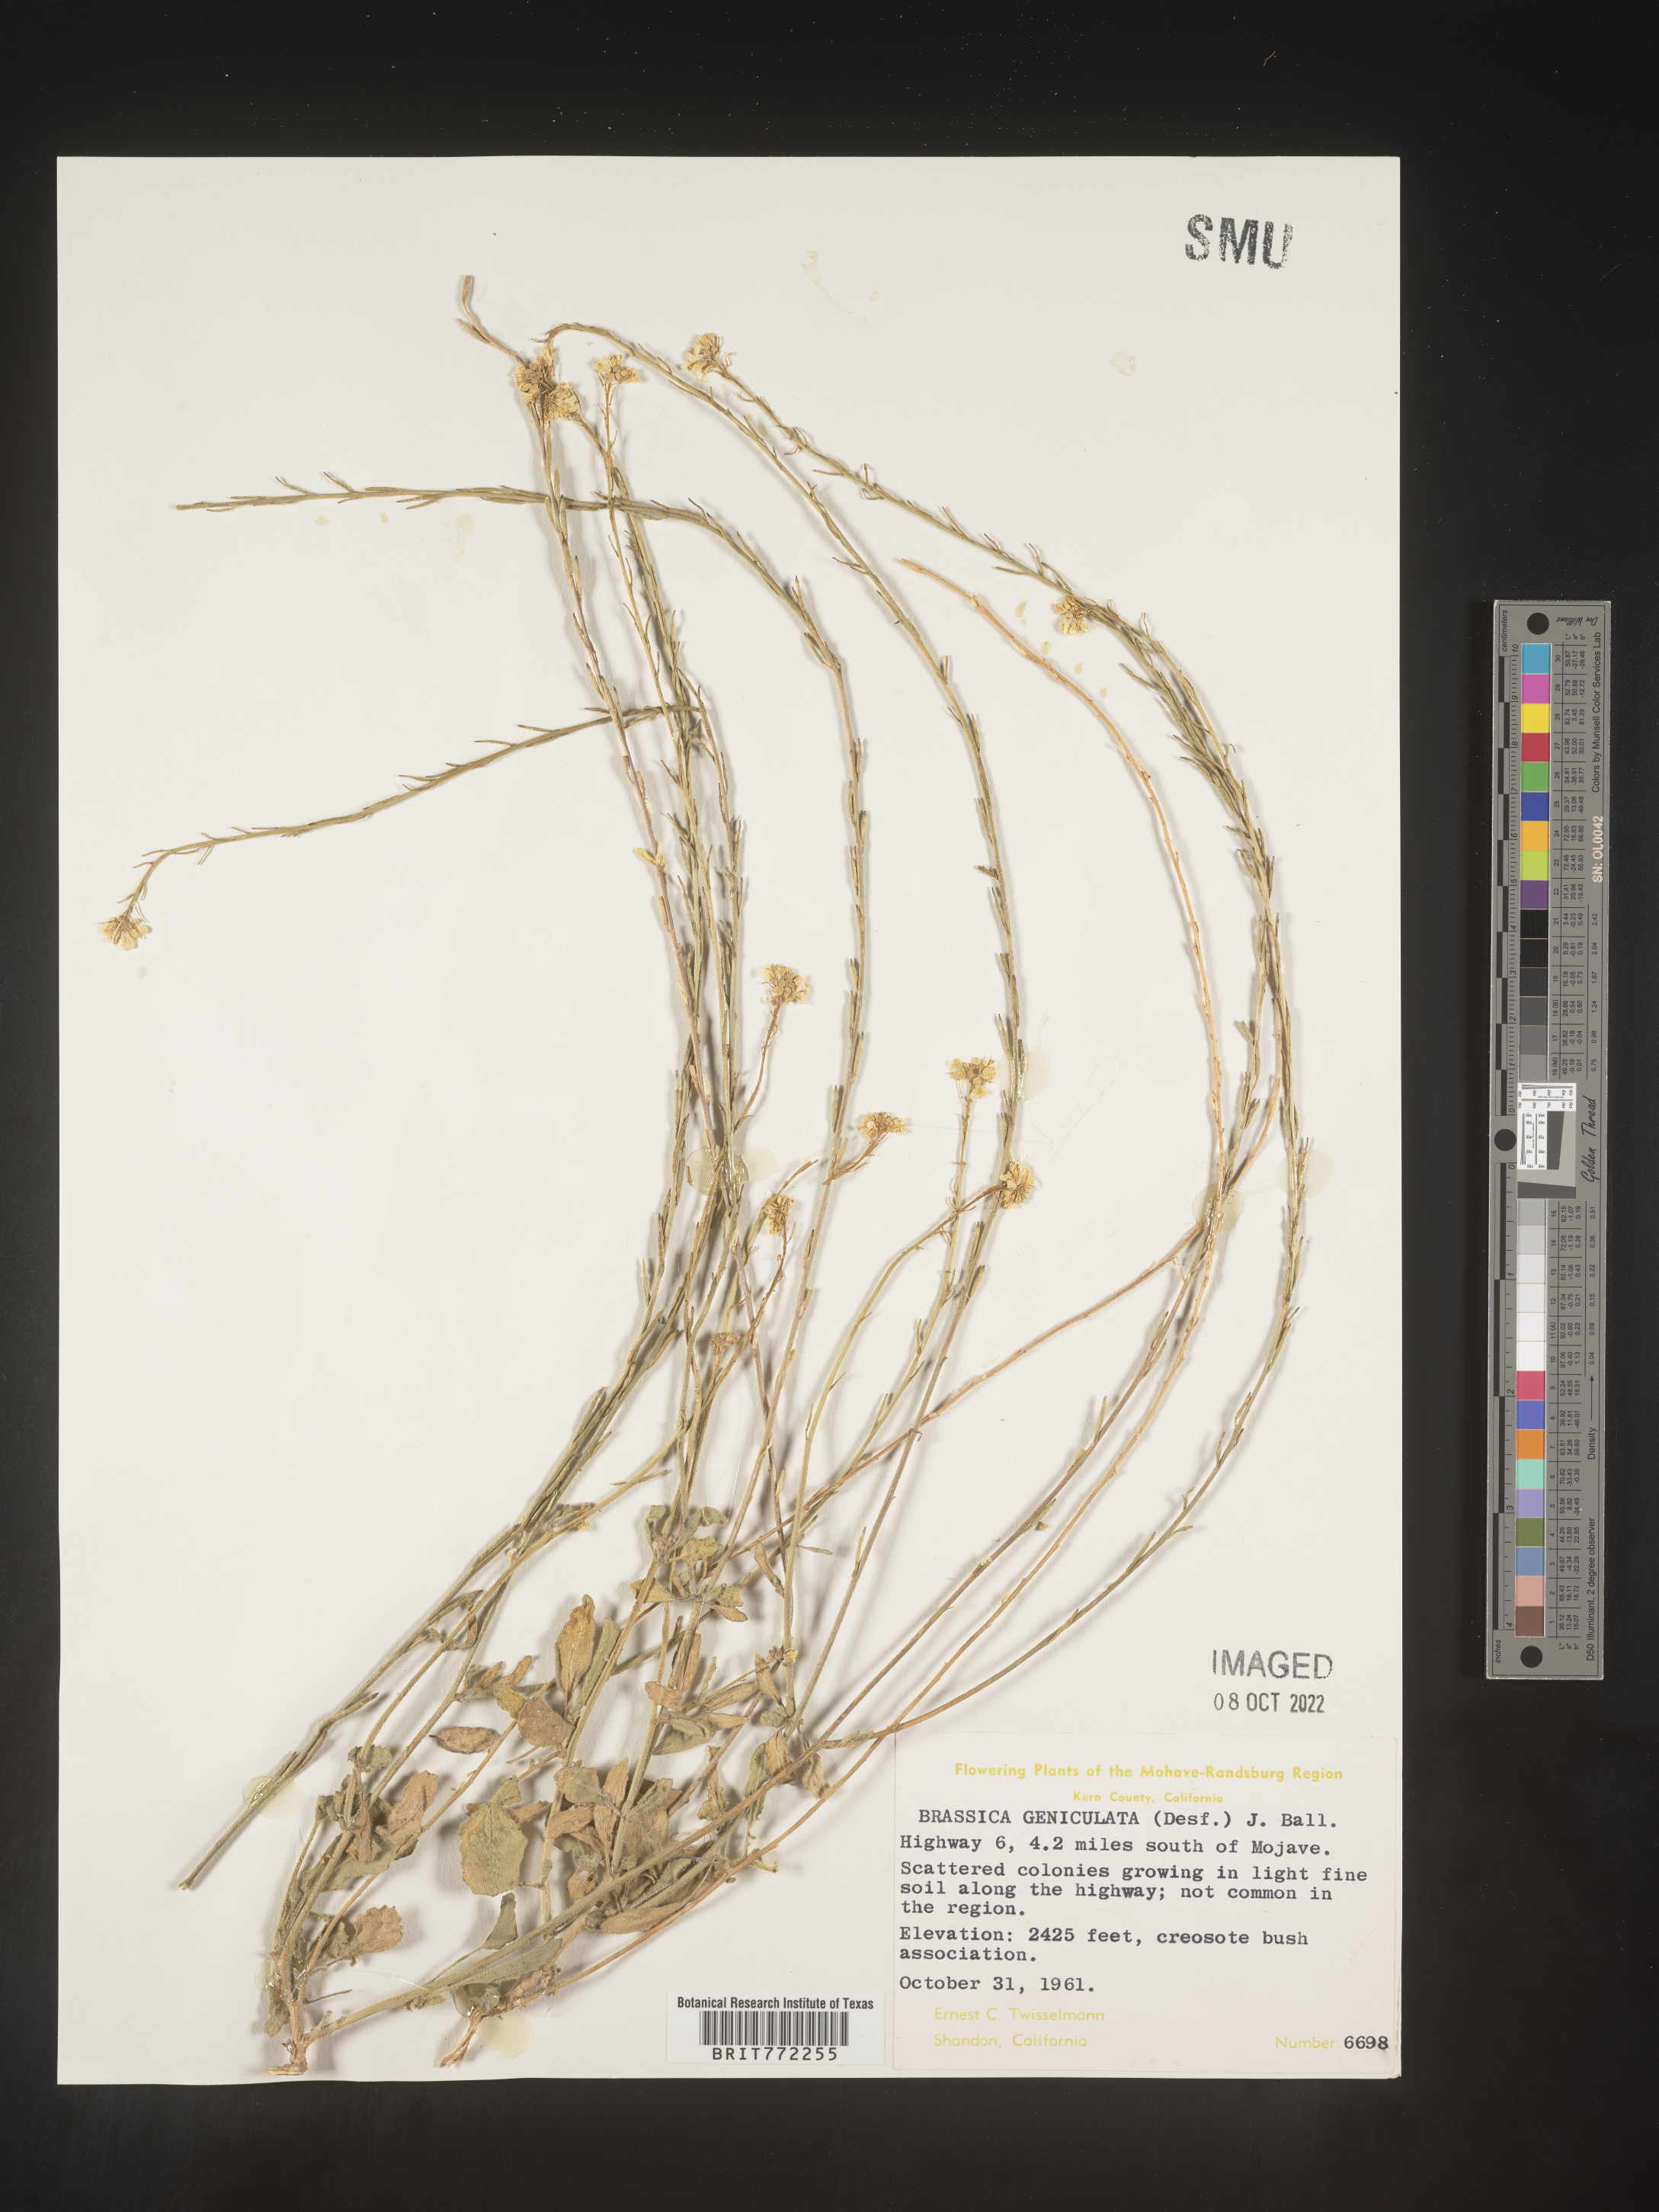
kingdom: Plantae
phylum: Tracheophyta
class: Magnoliopsida
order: Brassicales
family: Brassicaceae
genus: Hirschfeldia
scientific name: Hirschfeldia incana
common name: Hoary mustard
